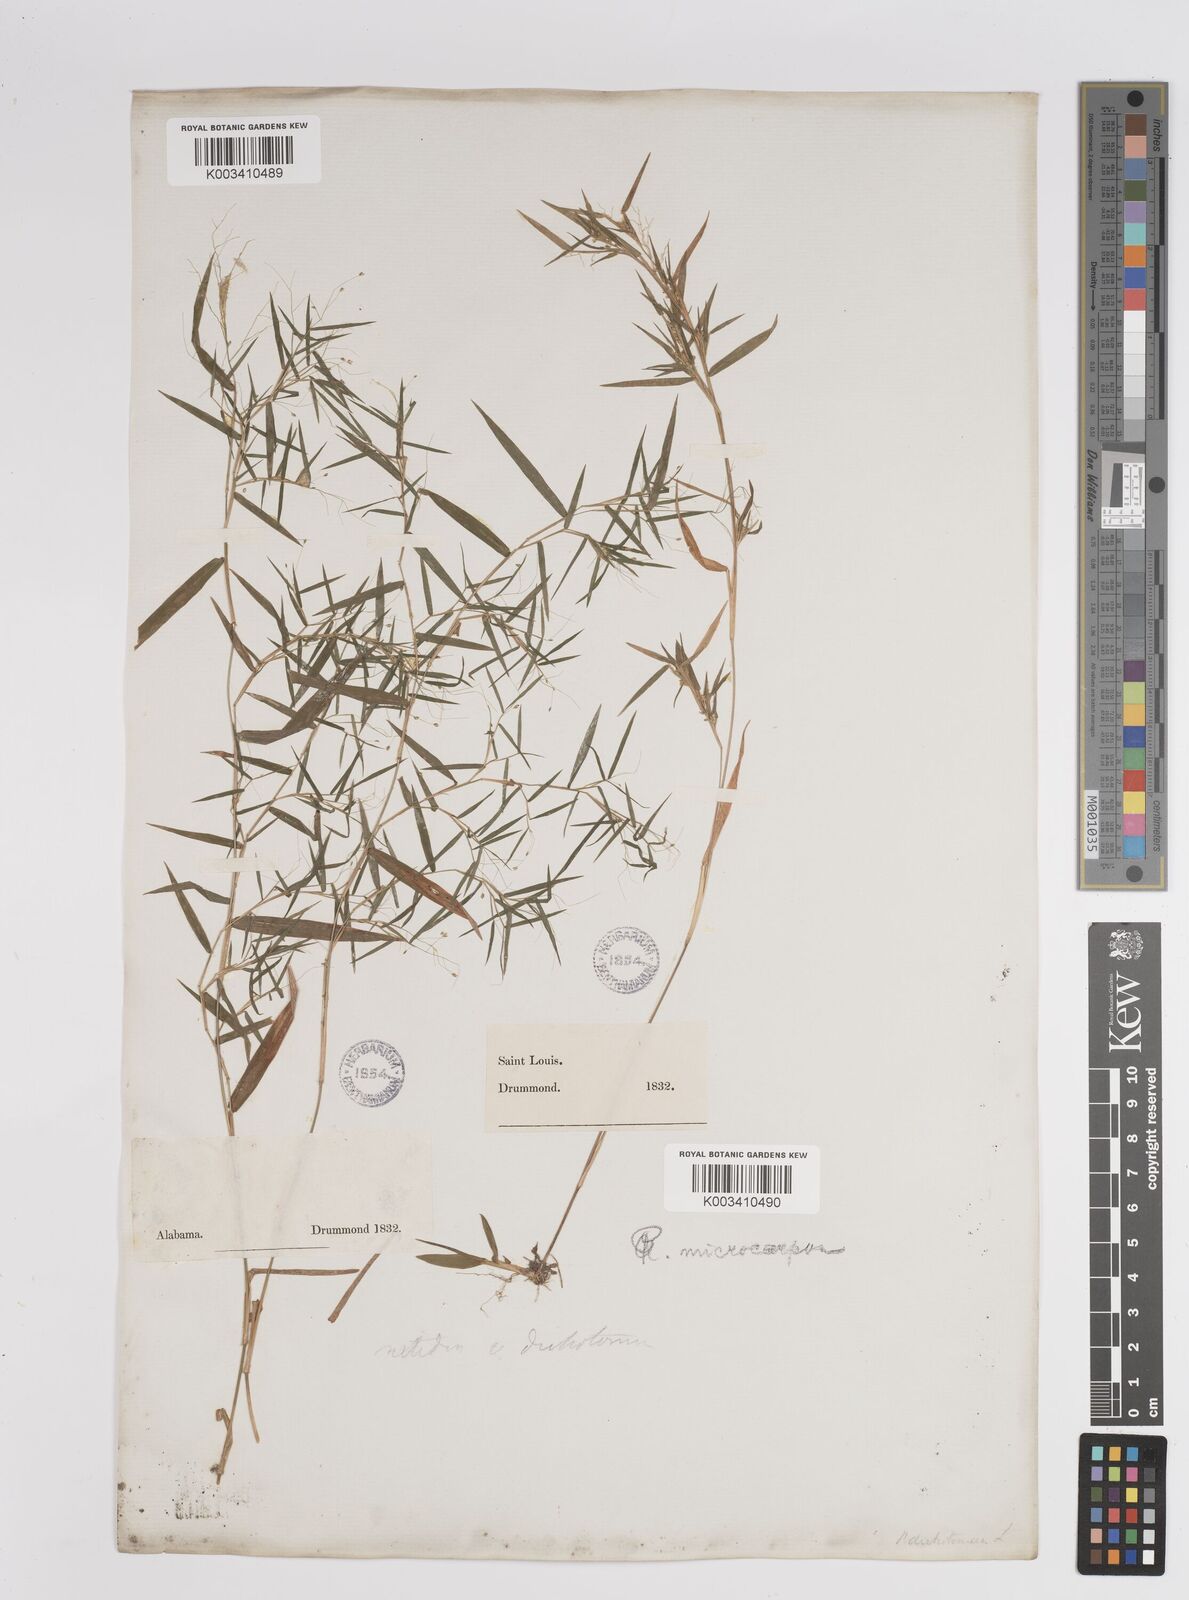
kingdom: Plantae
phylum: Tracheophyta
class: Liliopsida
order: Poales
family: Poaceae
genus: Dichanthelium
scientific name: Dichanthelium polyanthes
